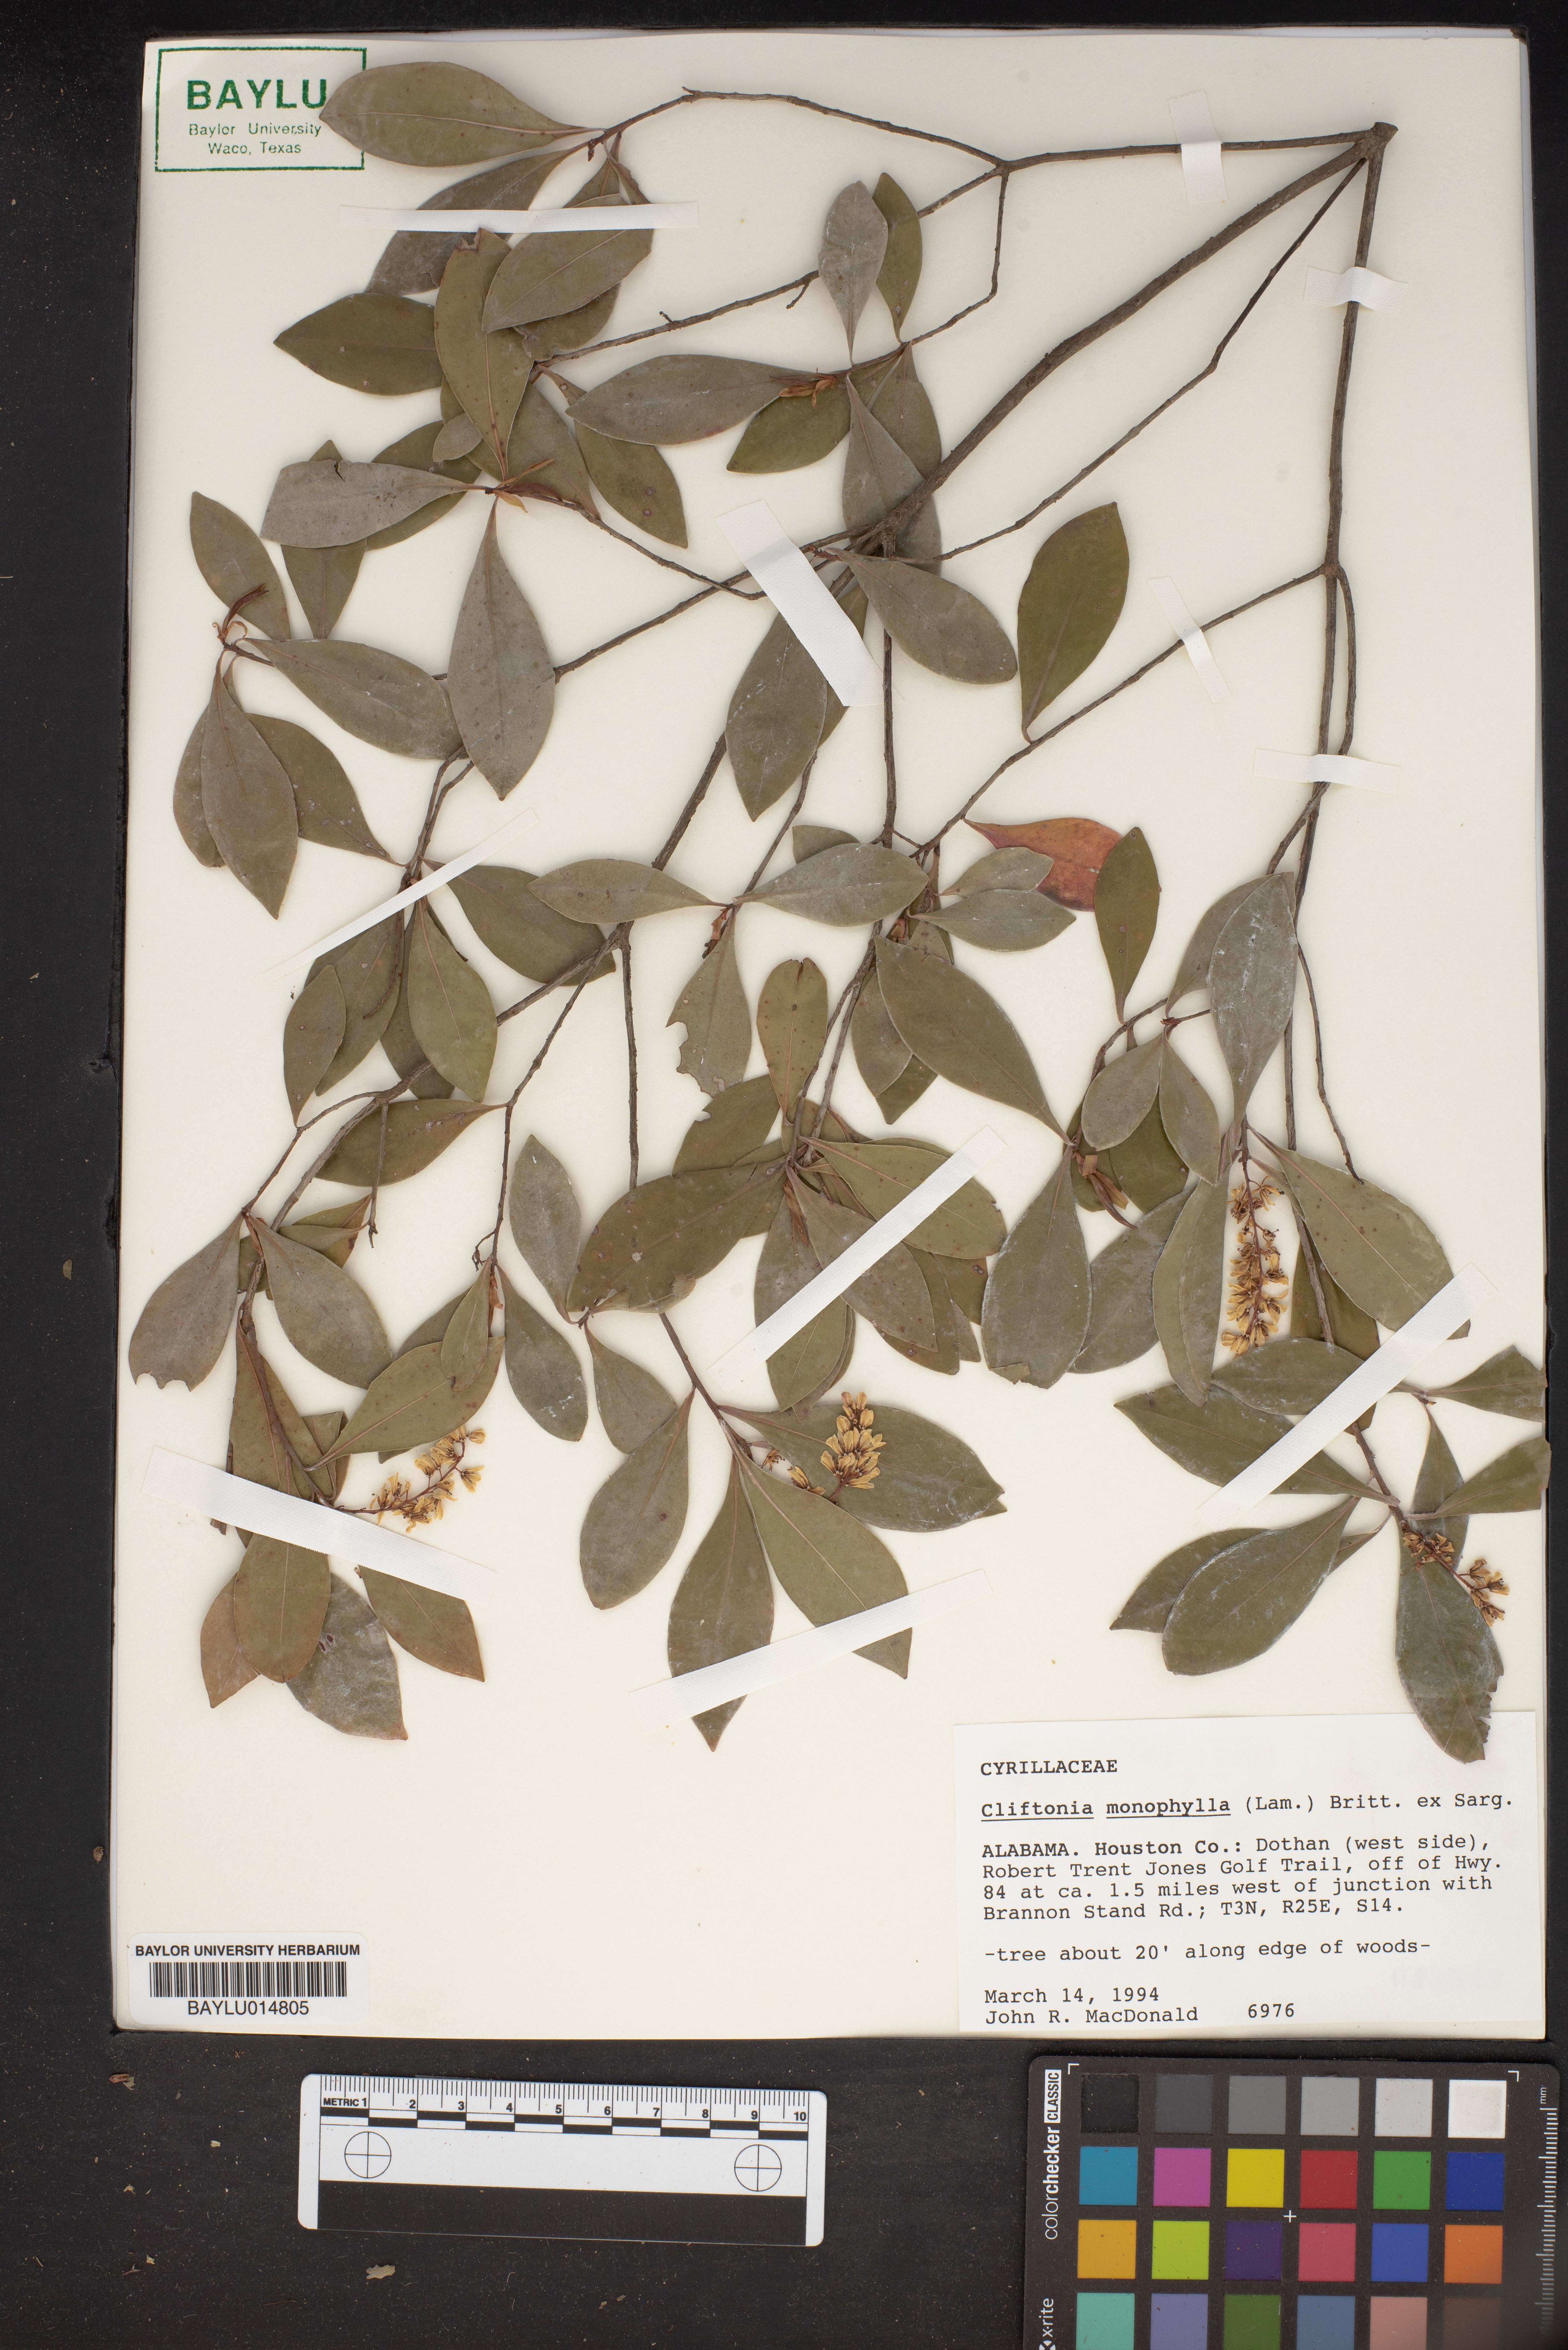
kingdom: Plantae
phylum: Tracheophyta
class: Magnoliopsida
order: Ericales
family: Cyrillaceae
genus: Cliftonia
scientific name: Cliftonia monophylla
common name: Titi
